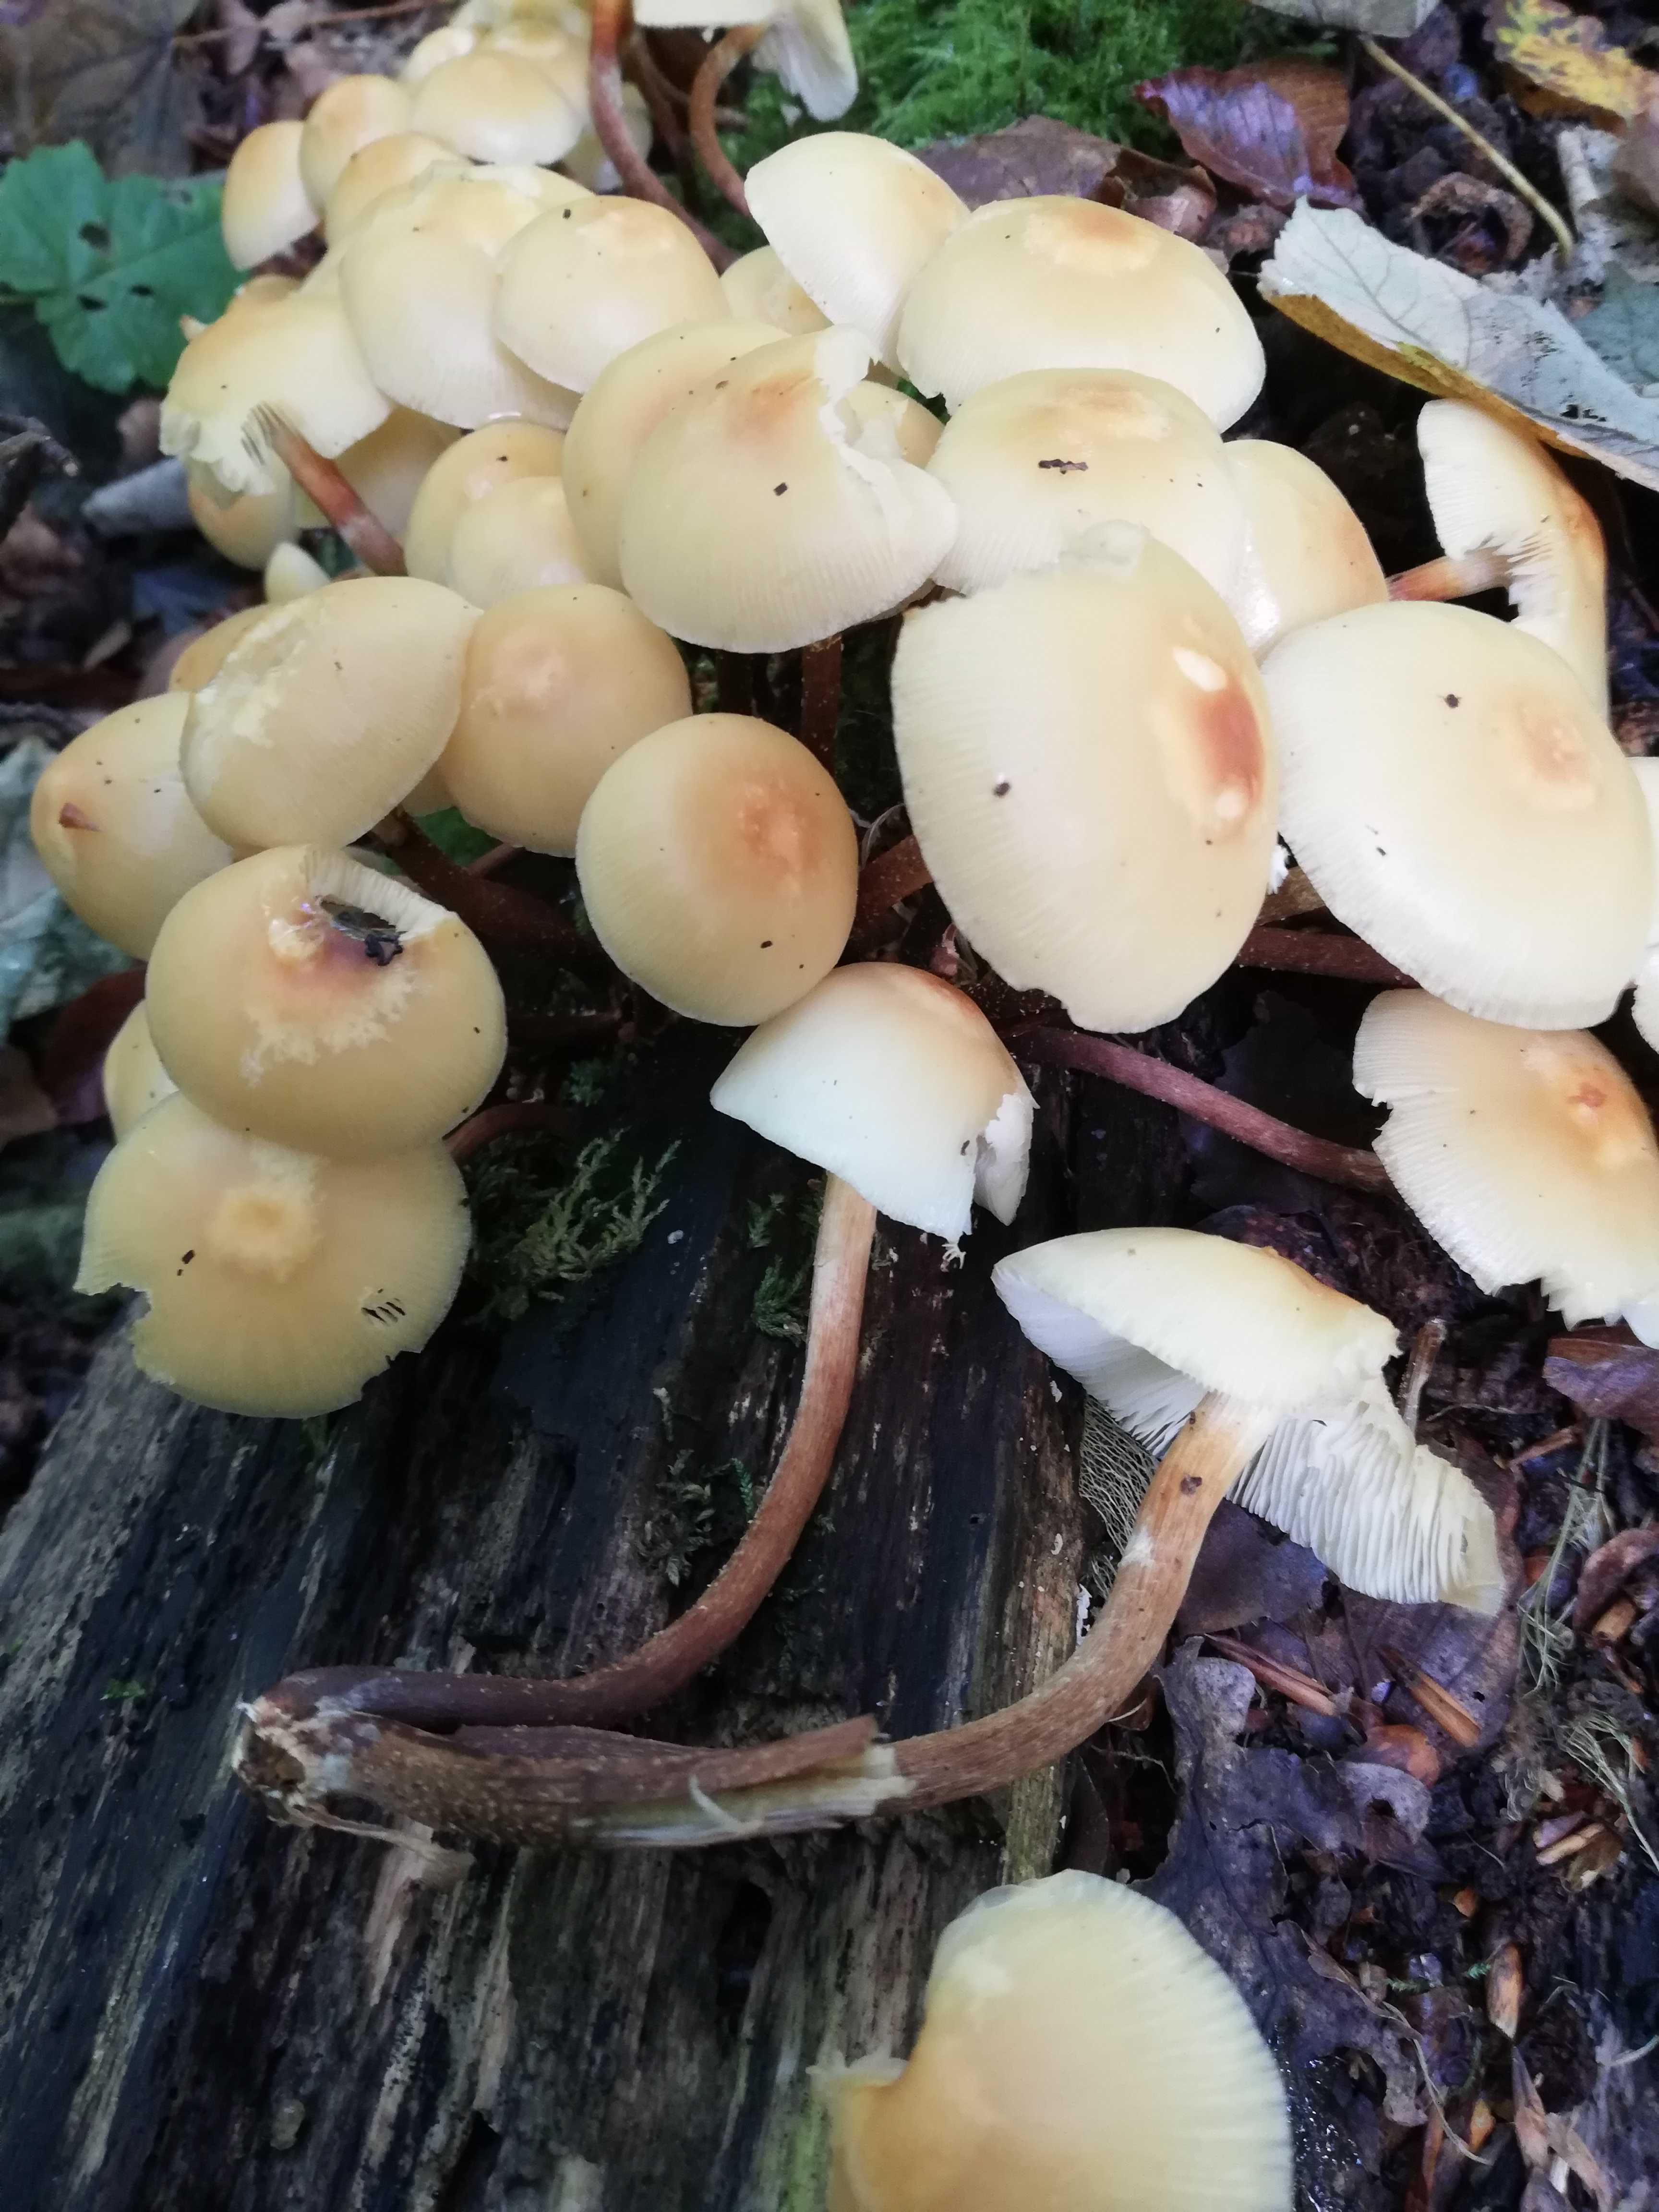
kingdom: Fungi
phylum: Basidiomycota
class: Agaricomycetes
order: Agaricales
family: Strophariaceae
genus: Kuehneromyces
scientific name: Kuehneromyces mutabilis
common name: foranderlig skælhat
